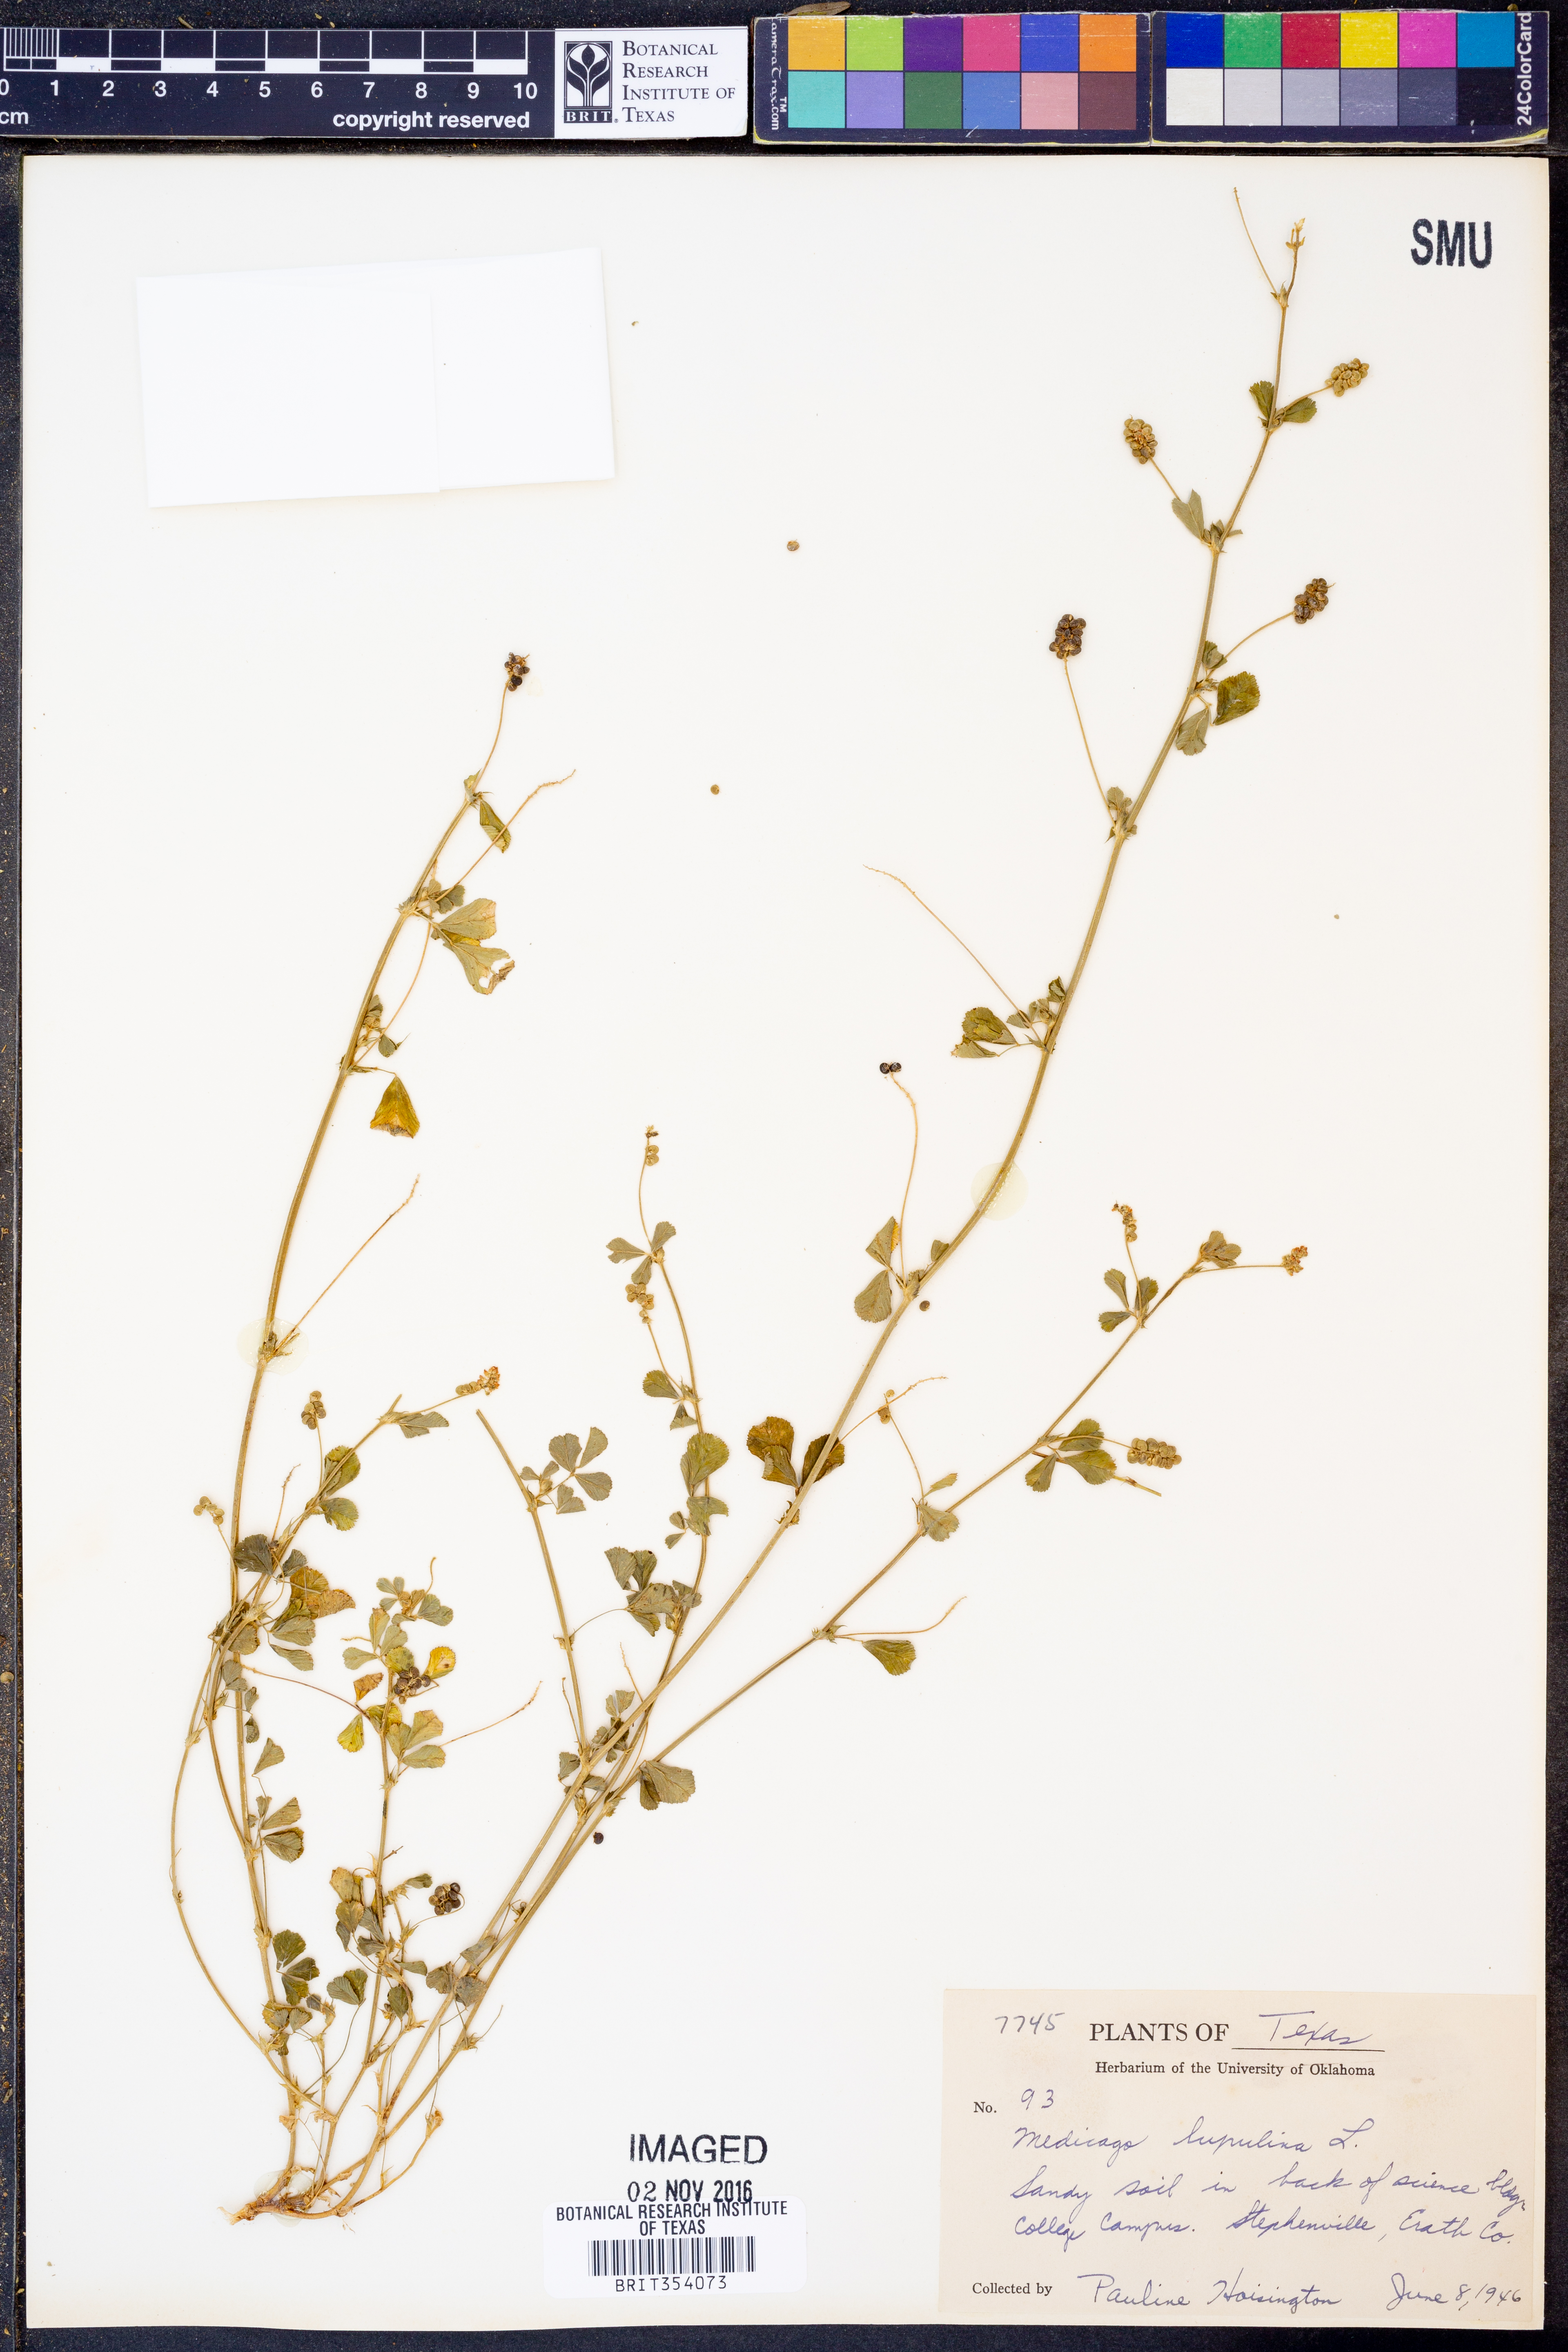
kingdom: Plantae
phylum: Tracheophyta
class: Magnoliopsida
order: Fabales
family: Fabaceae
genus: Medicago
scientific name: Medicago lupulina
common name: Black medick
